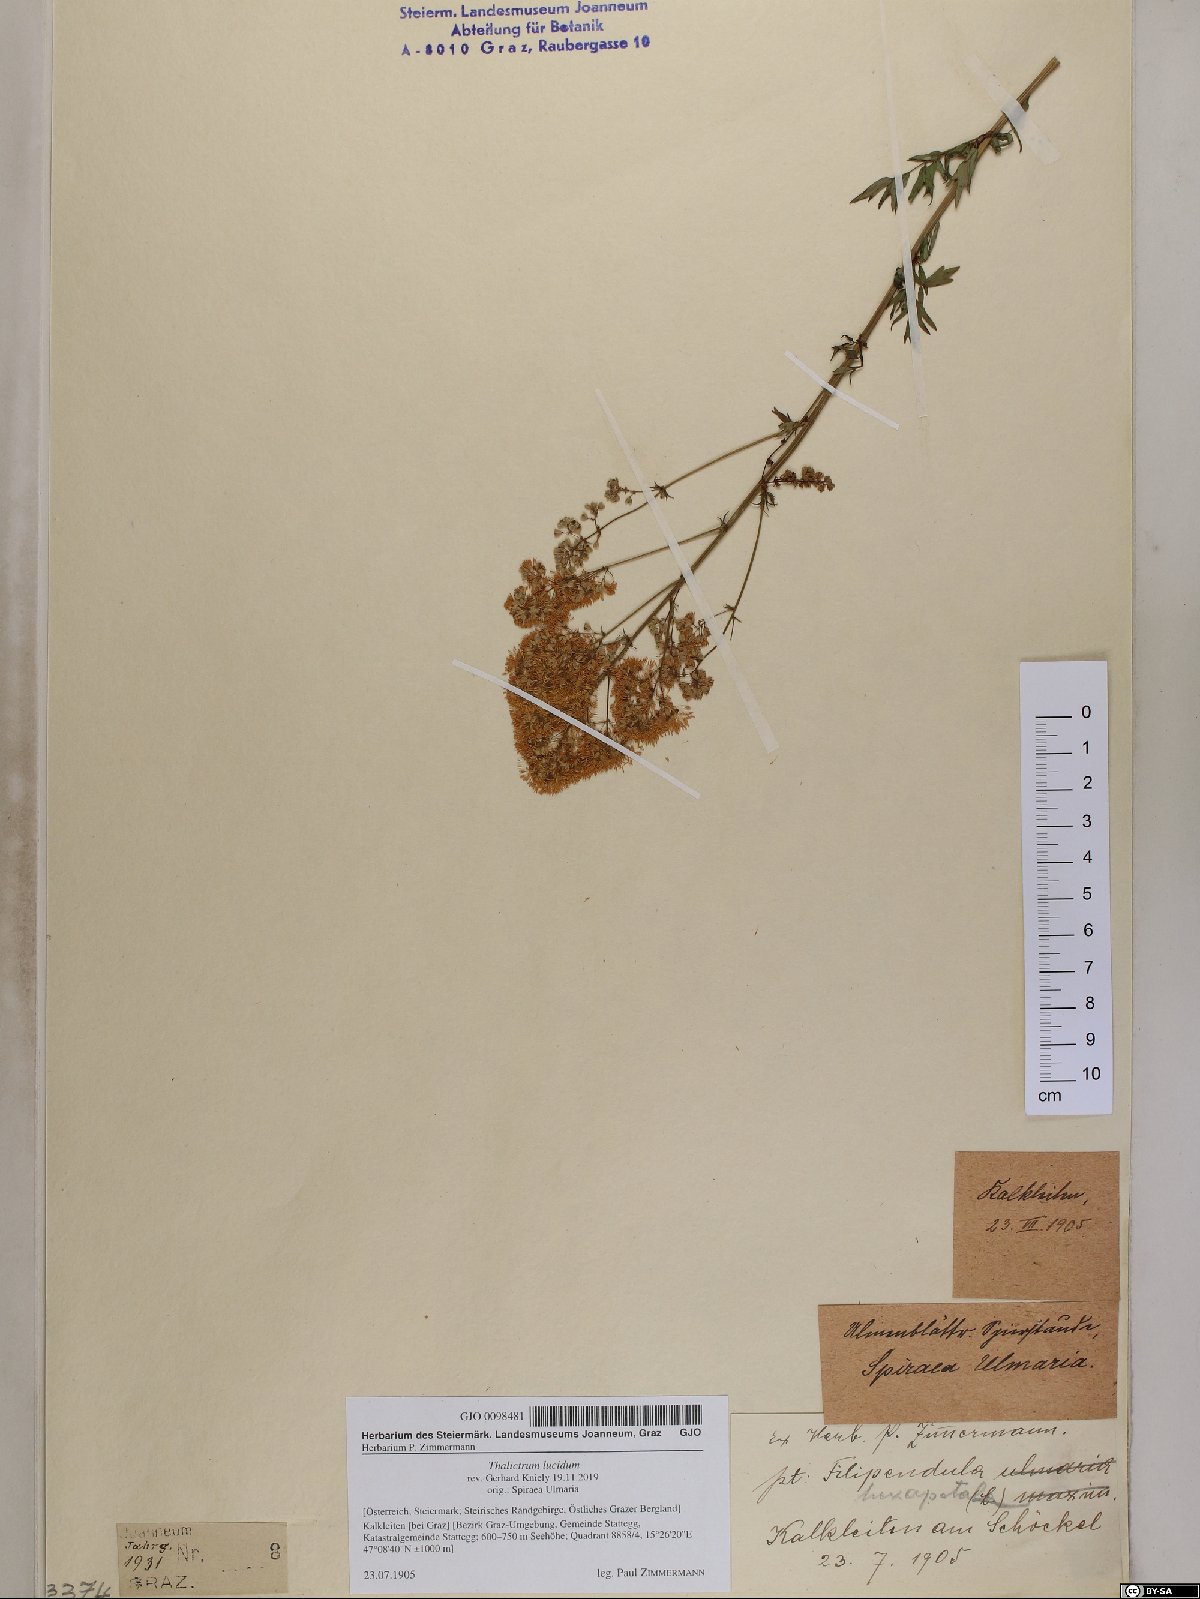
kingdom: Plantae
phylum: Tracheophyta
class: Magnoliopsida
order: Ranunculales
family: Ranunculaceae
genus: Thalictrum
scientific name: Thalictrum lucidum
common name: Shining meadow-rue
